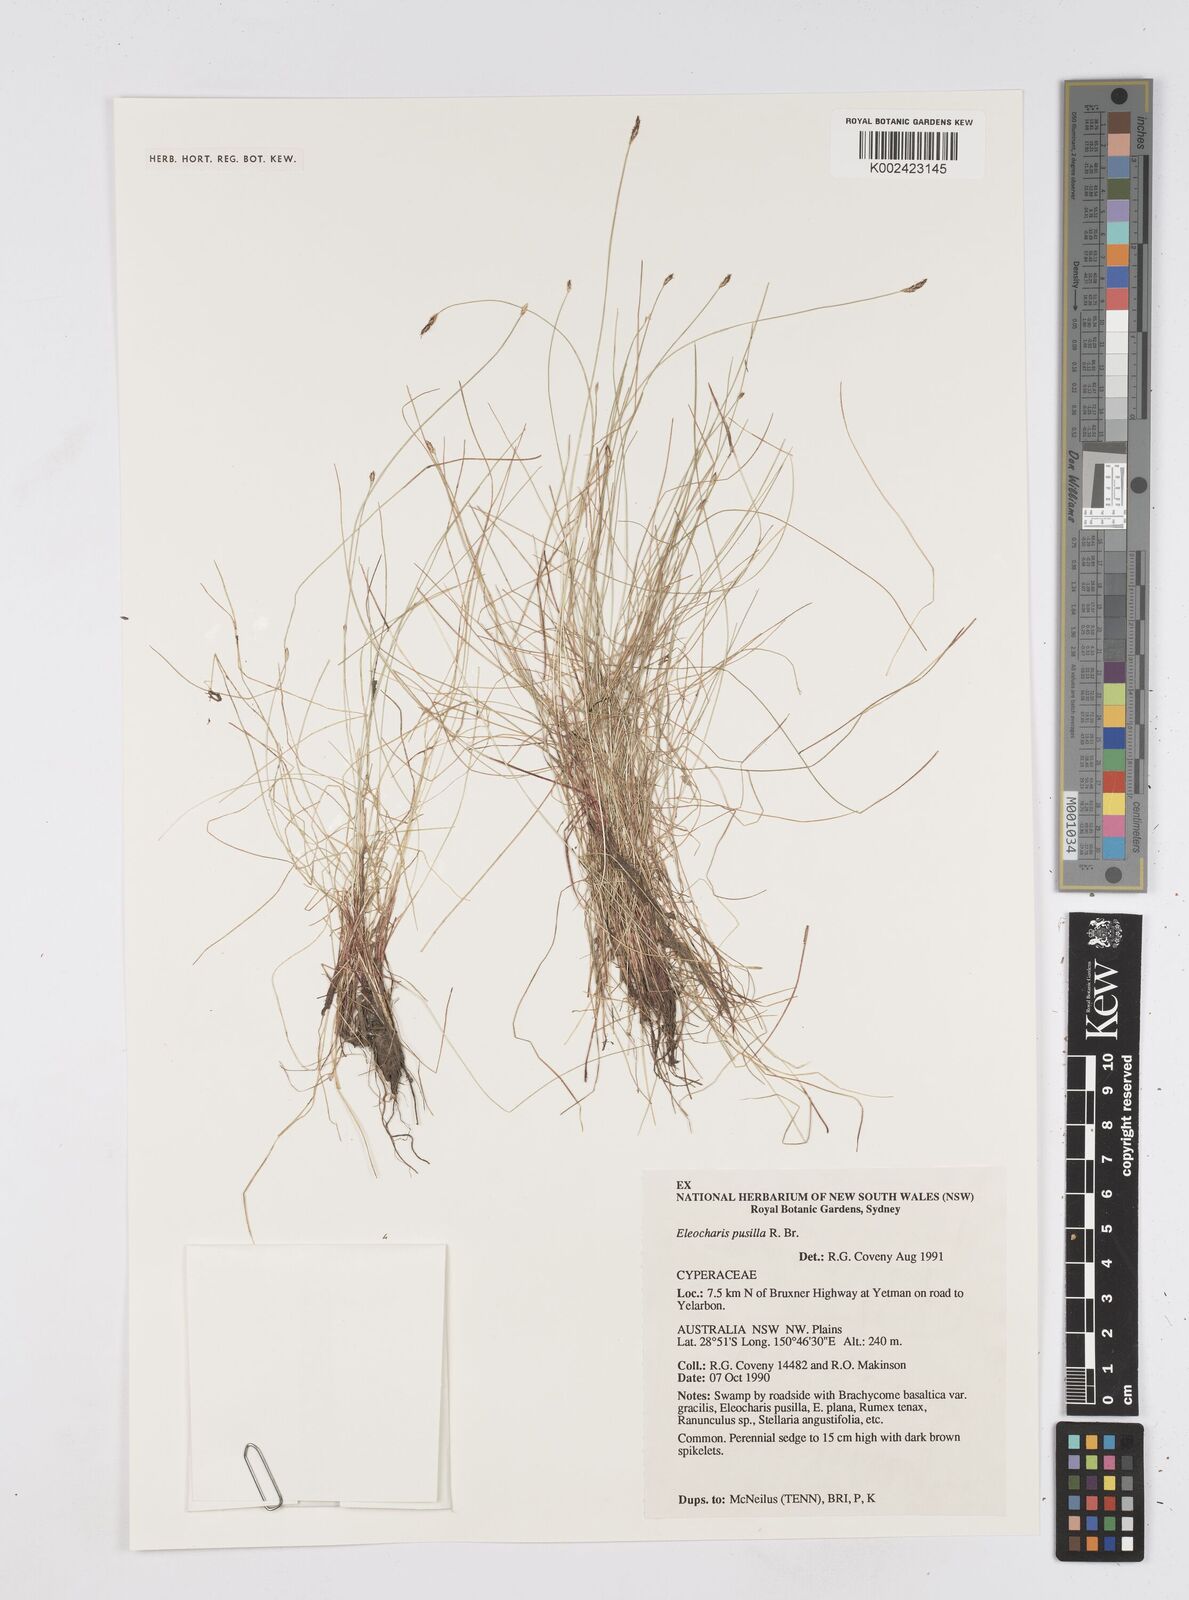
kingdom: Plantae
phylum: Tracheophyta
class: Liliopsida
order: Poales
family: Cyperaceae
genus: Eleocharis
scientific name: Eleocharis pusilla
